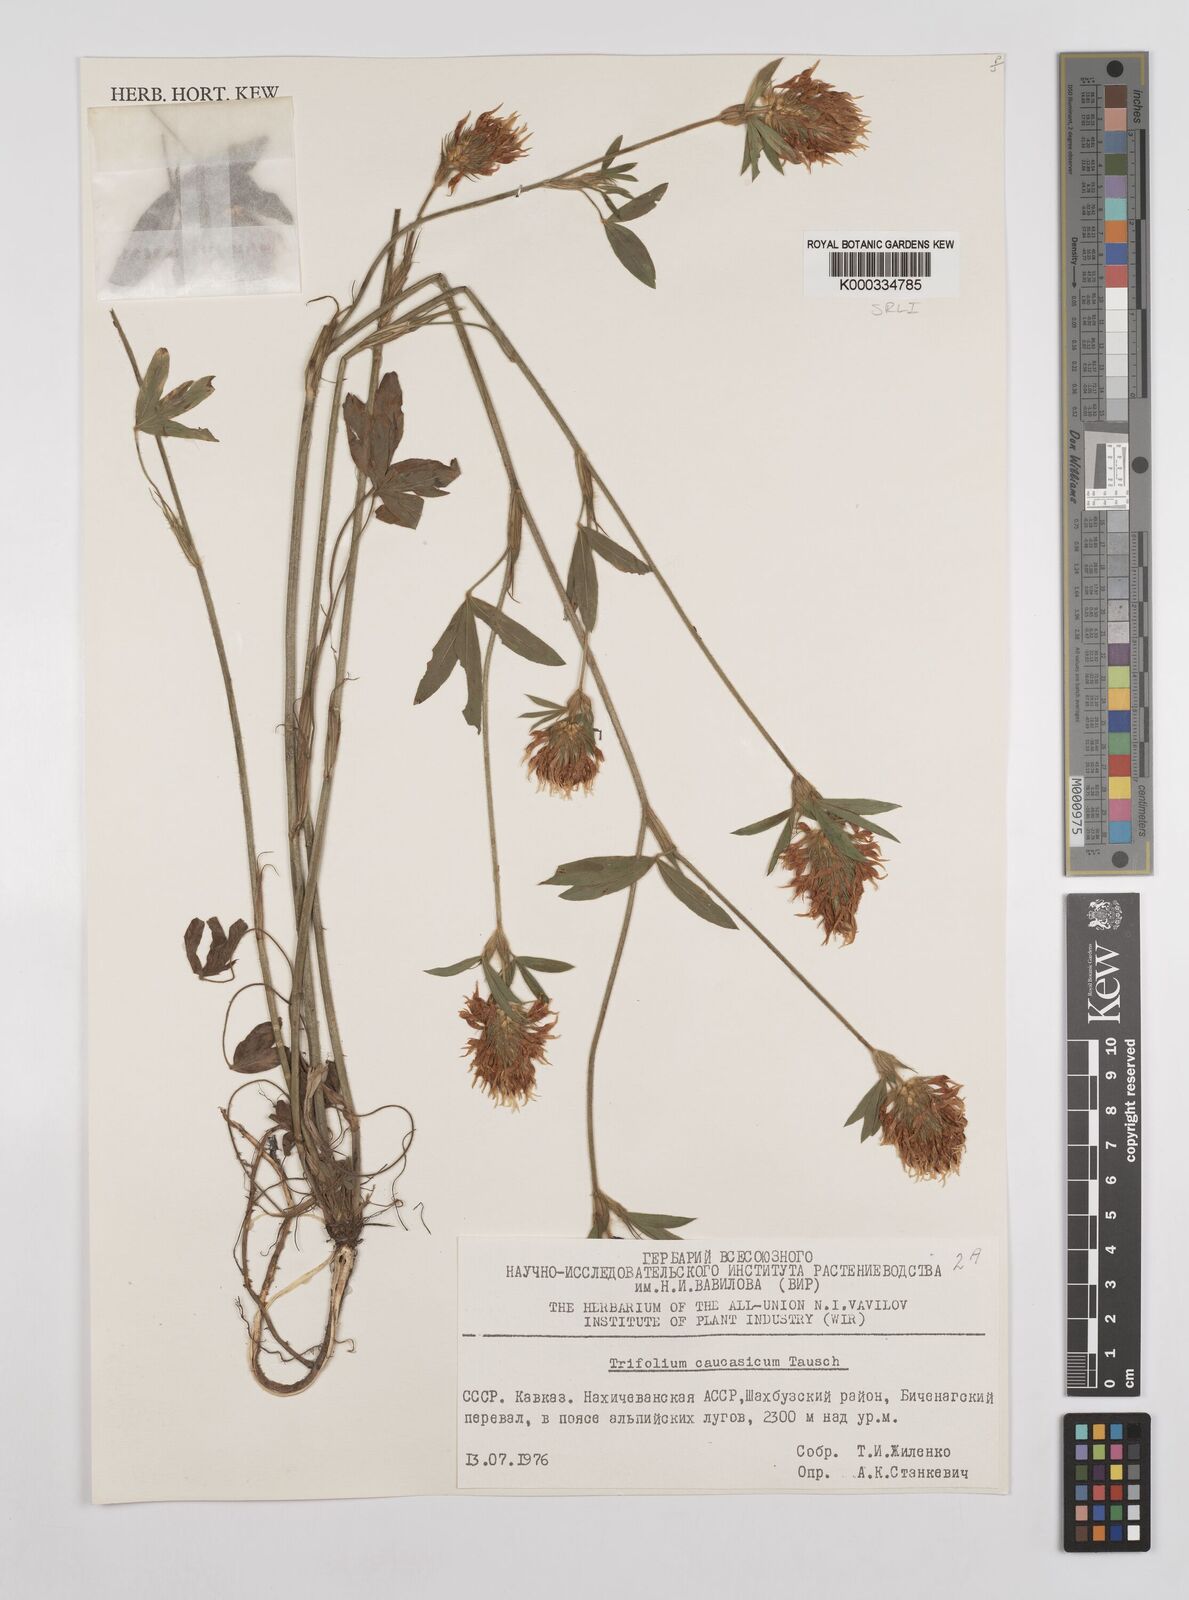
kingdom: Plantae
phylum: Tracheophyta
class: Magnoliopsida
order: Fabales
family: Fabaceae
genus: Trifolium
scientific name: Trifolium ochroleucon
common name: Sulphur clover
